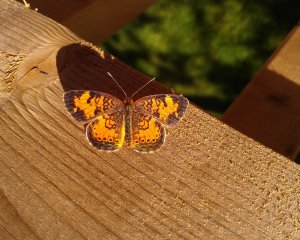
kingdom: Animalia
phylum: Arthropoda
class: Insecta
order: Lepidoptera
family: Nymphalidae
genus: Phyciodes
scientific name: Phyciodes tharos
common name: Northern Crescent
